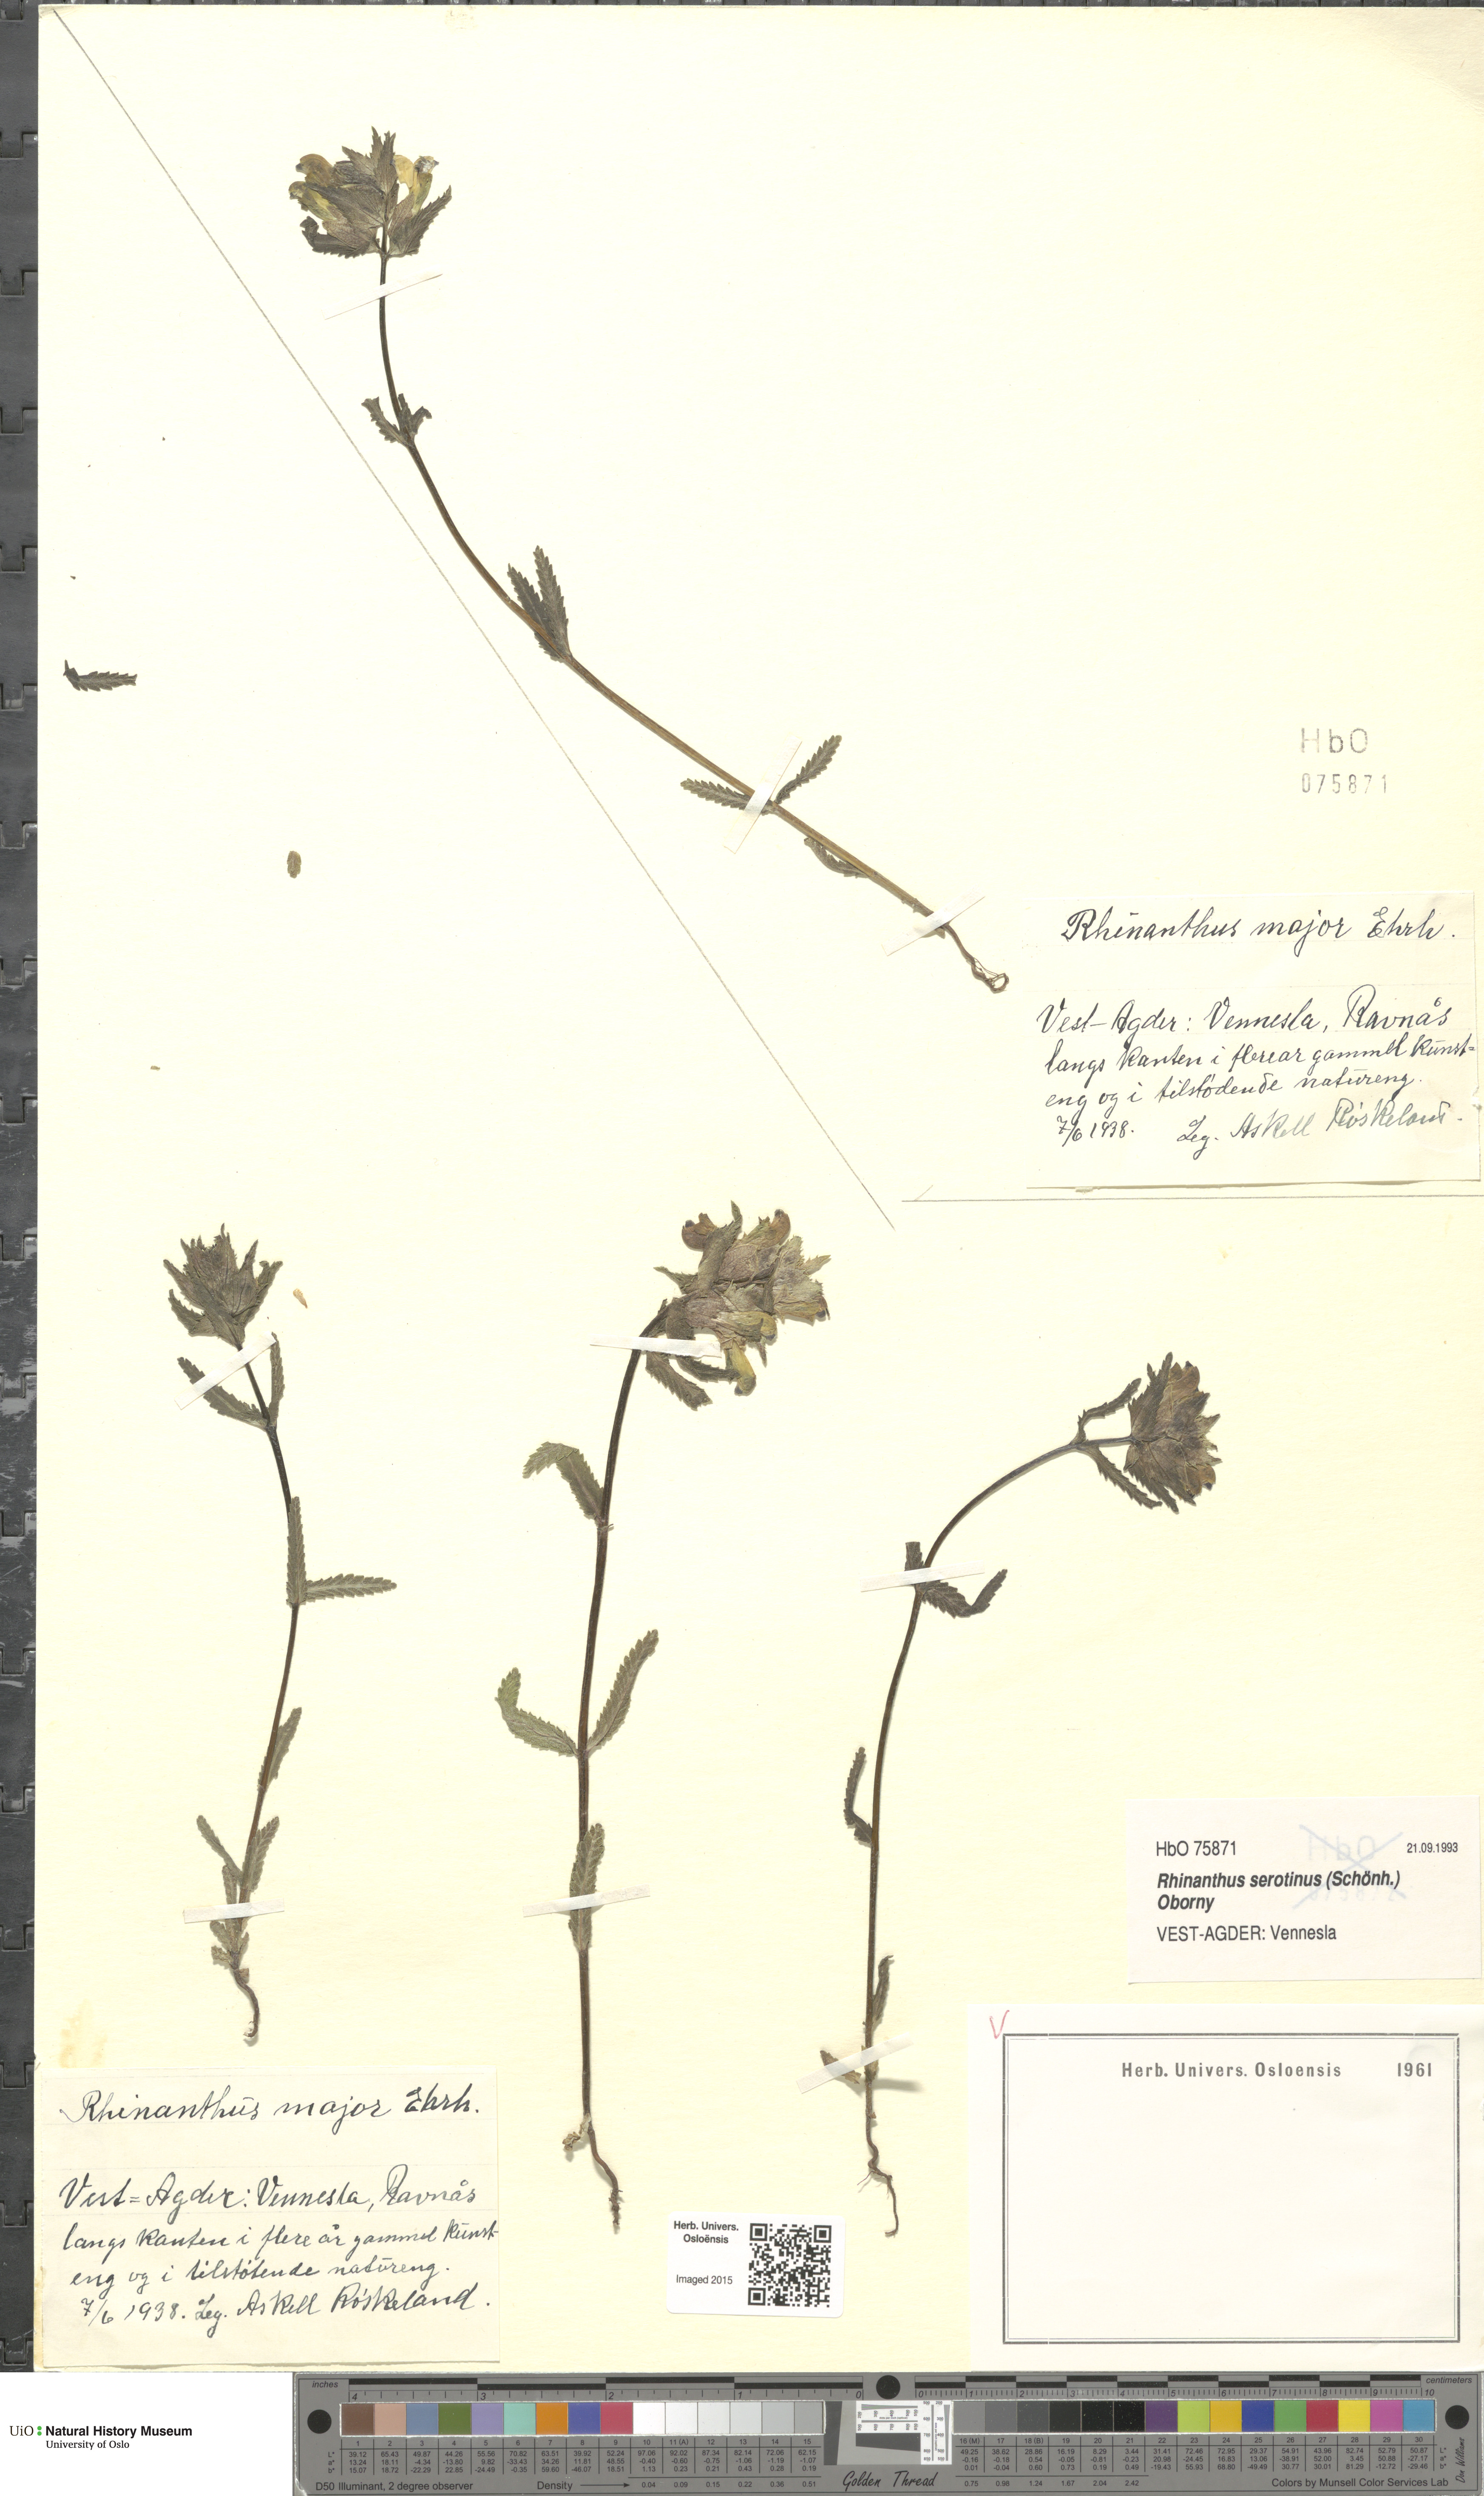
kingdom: Plantae
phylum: Tracheophyta
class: Magnoliopsida
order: Lamiales
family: Orobanchaceae
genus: Rhinanthus
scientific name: Rhinanthus serotinus
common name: Late-flowering yellow rattle
